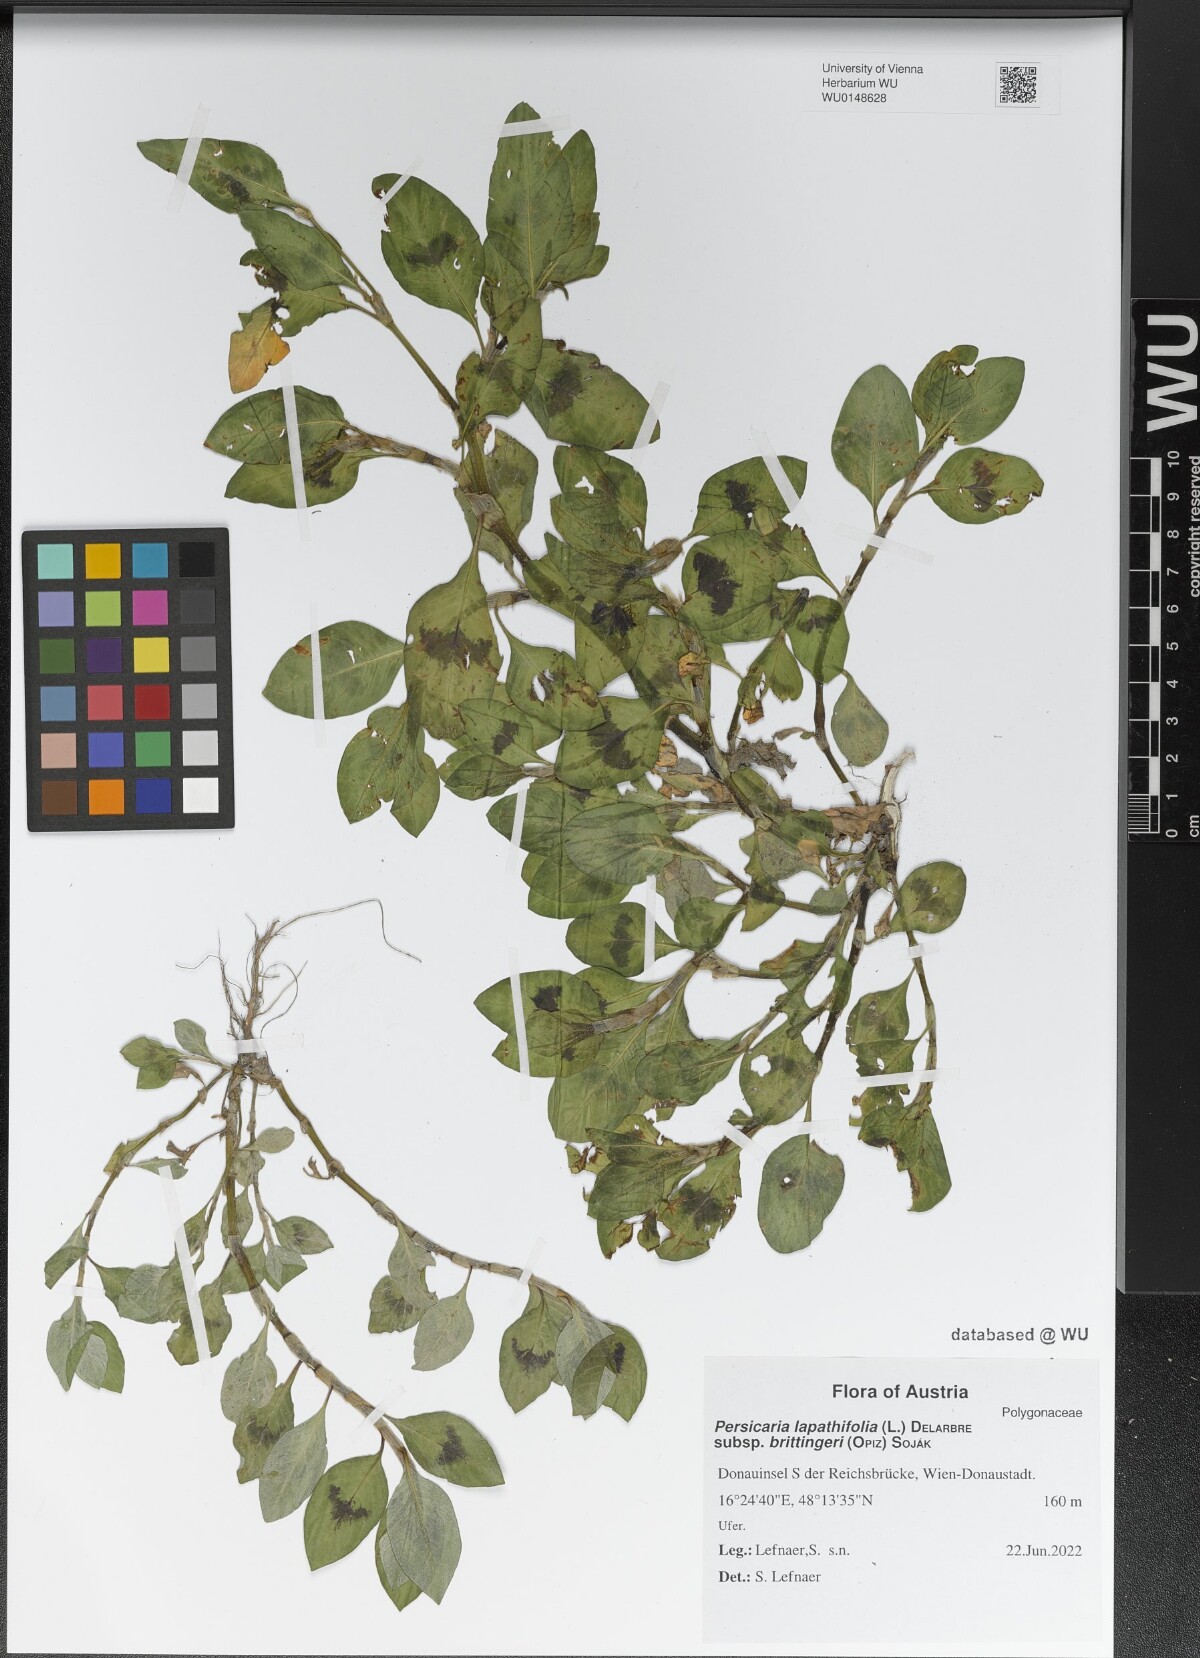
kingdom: Plantae
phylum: Tracheophyta
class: Magnoliopsida
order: Caryophyllales
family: Polygonaceae
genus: Persicaria
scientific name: Persicaria lapathifolia
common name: Curlytop knotweed
